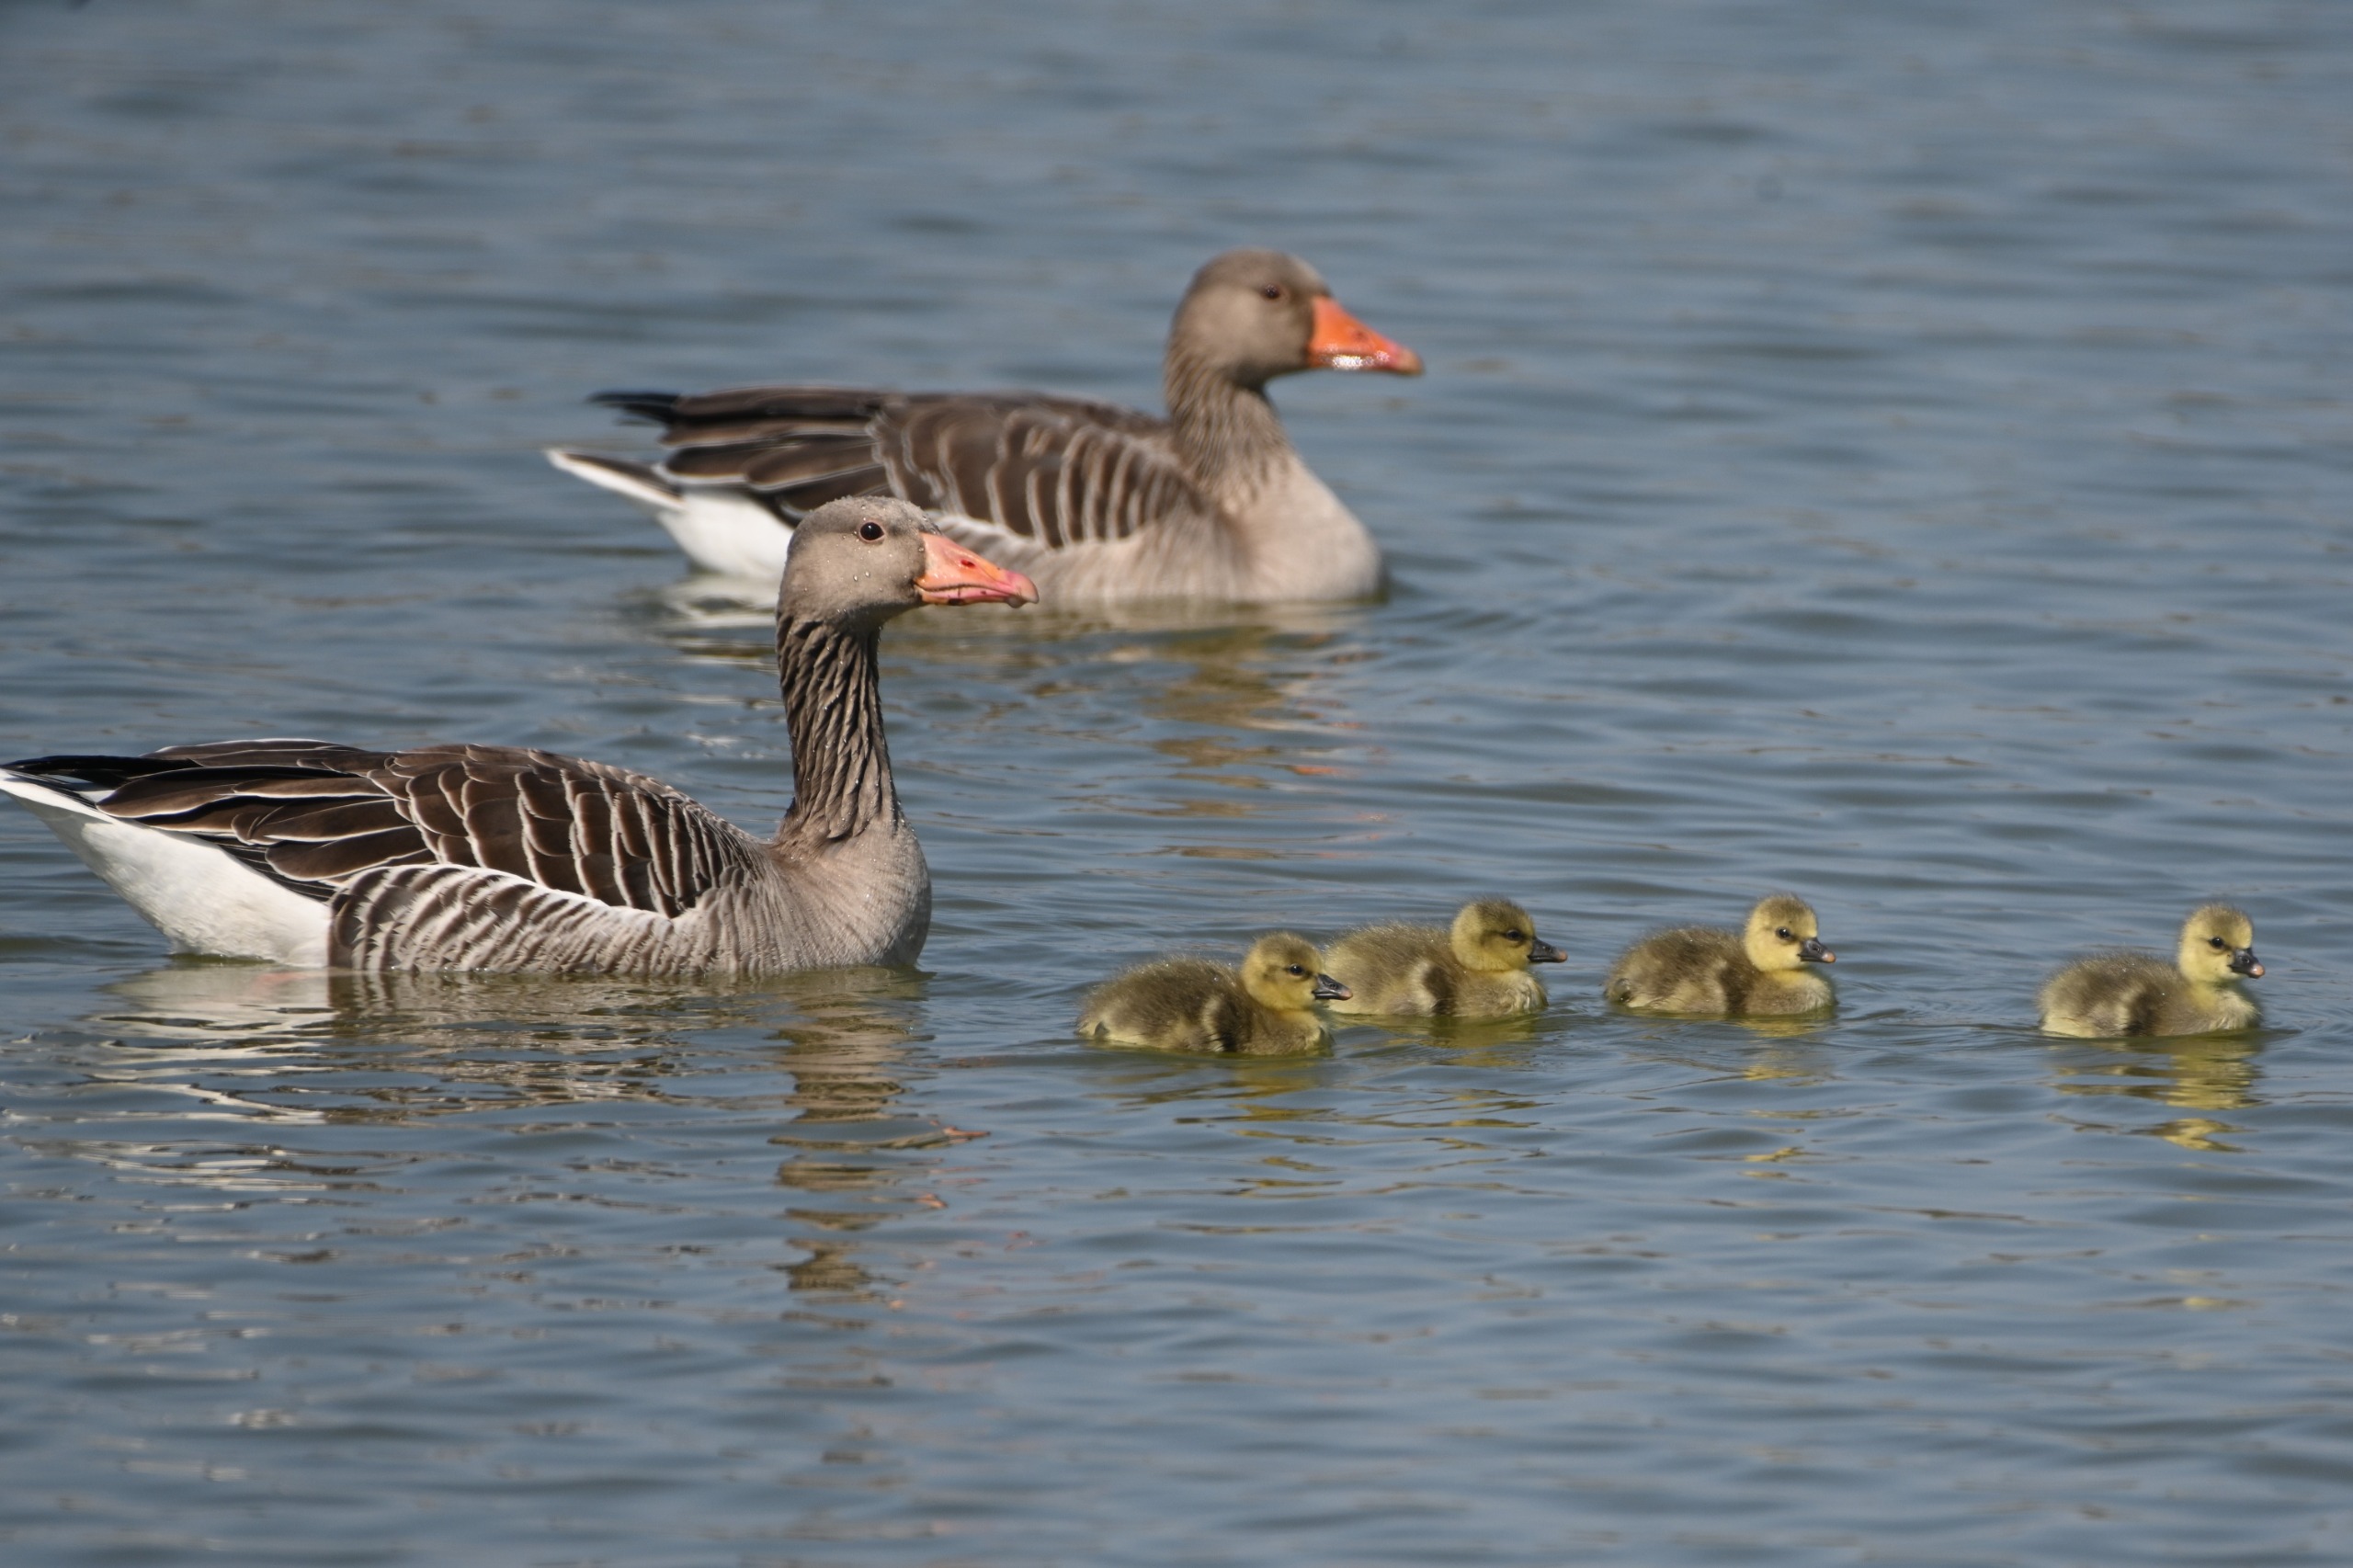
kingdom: Animalia
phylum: Chordata
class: Aves
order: Anseriformes
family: Anatidae
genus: Anser
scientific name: Anser anser
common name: Grågås
